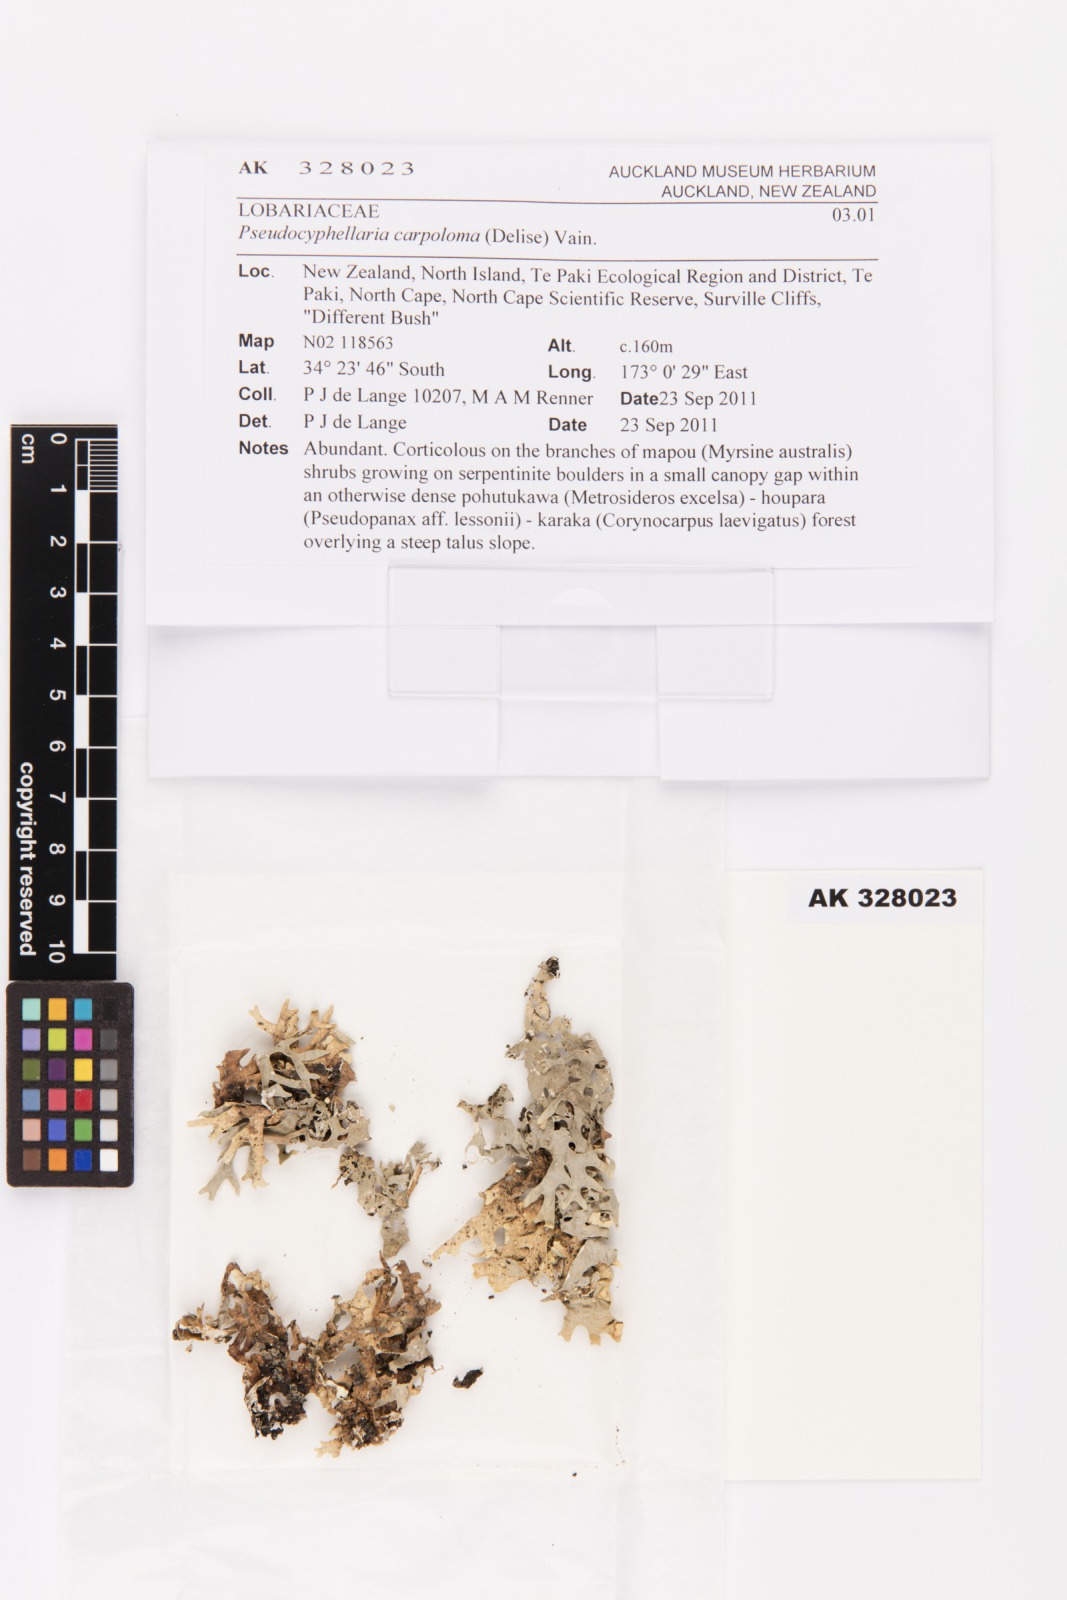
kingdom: Fungi
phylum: Ascomycota
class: Lecanoromycetes
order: Peltigerales
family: Lobariaceae
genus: Pseudocyphellaria
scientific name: Pseudocyphellaria carpoloma
